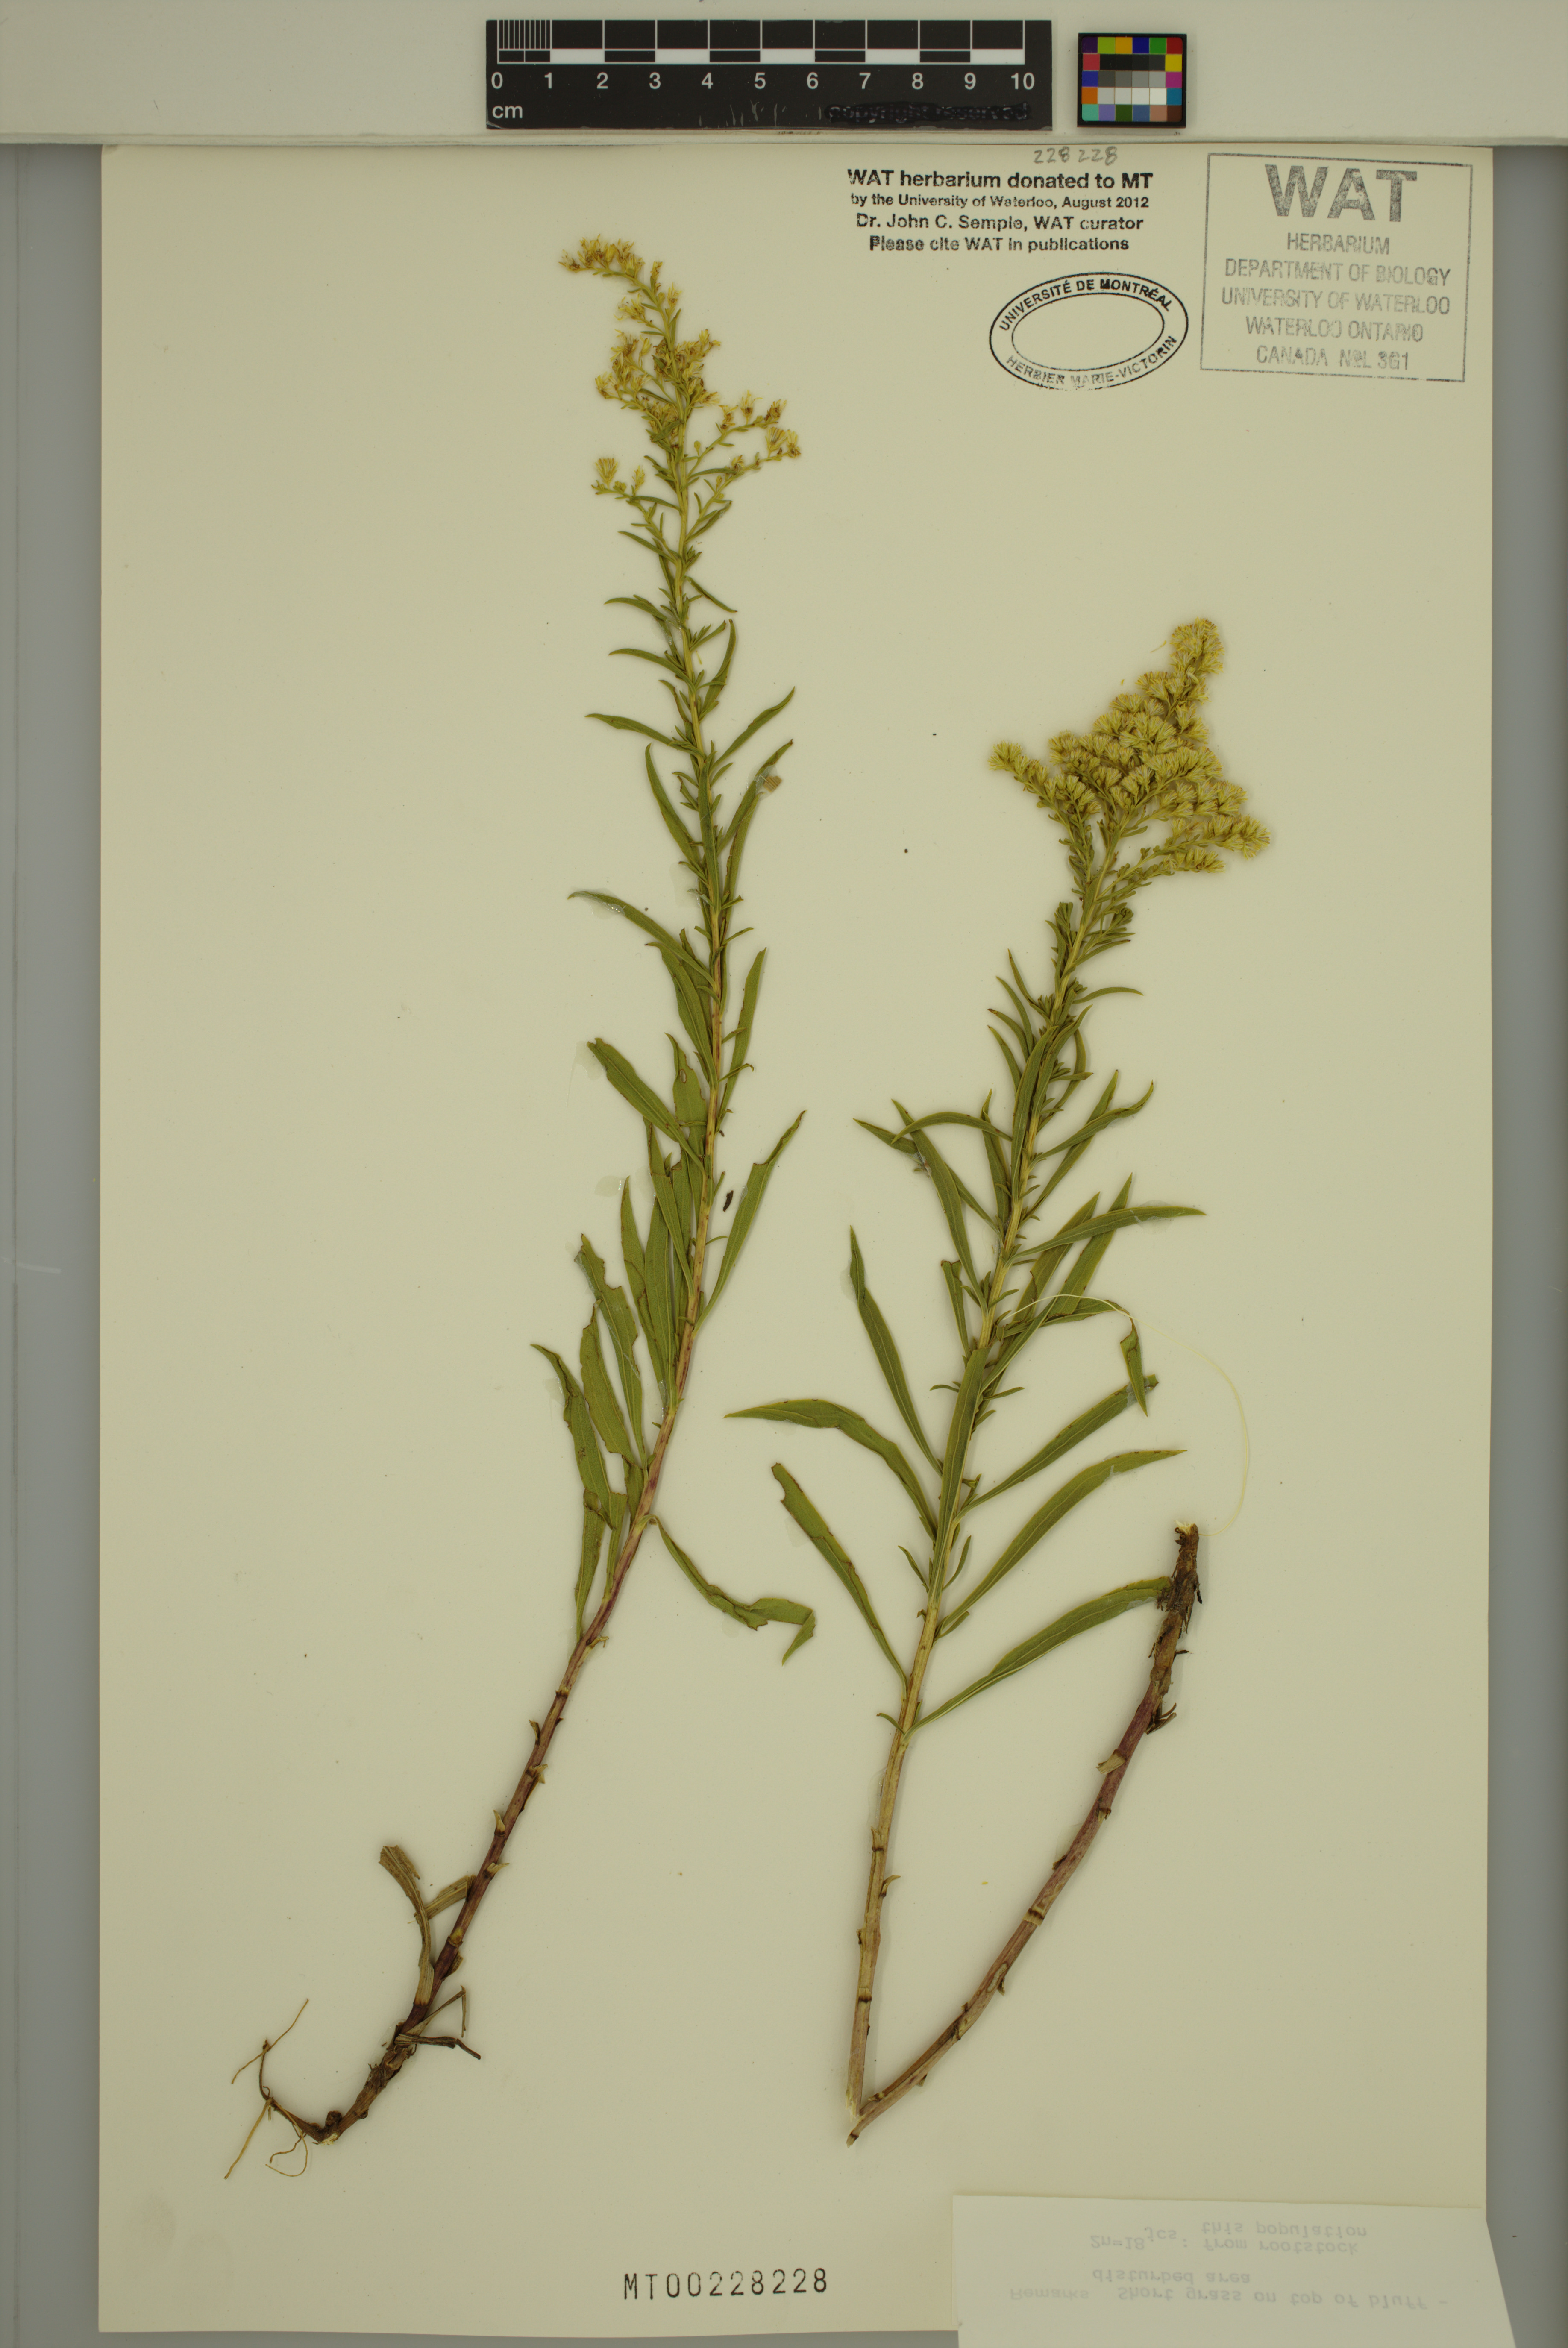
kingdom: Plantae
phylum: Tracheophyta
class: Magnoliopsida
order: Asterales
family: Asteraceae
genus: Solidago
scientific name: Solidago missouriensis
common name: Prairie goldenrod
